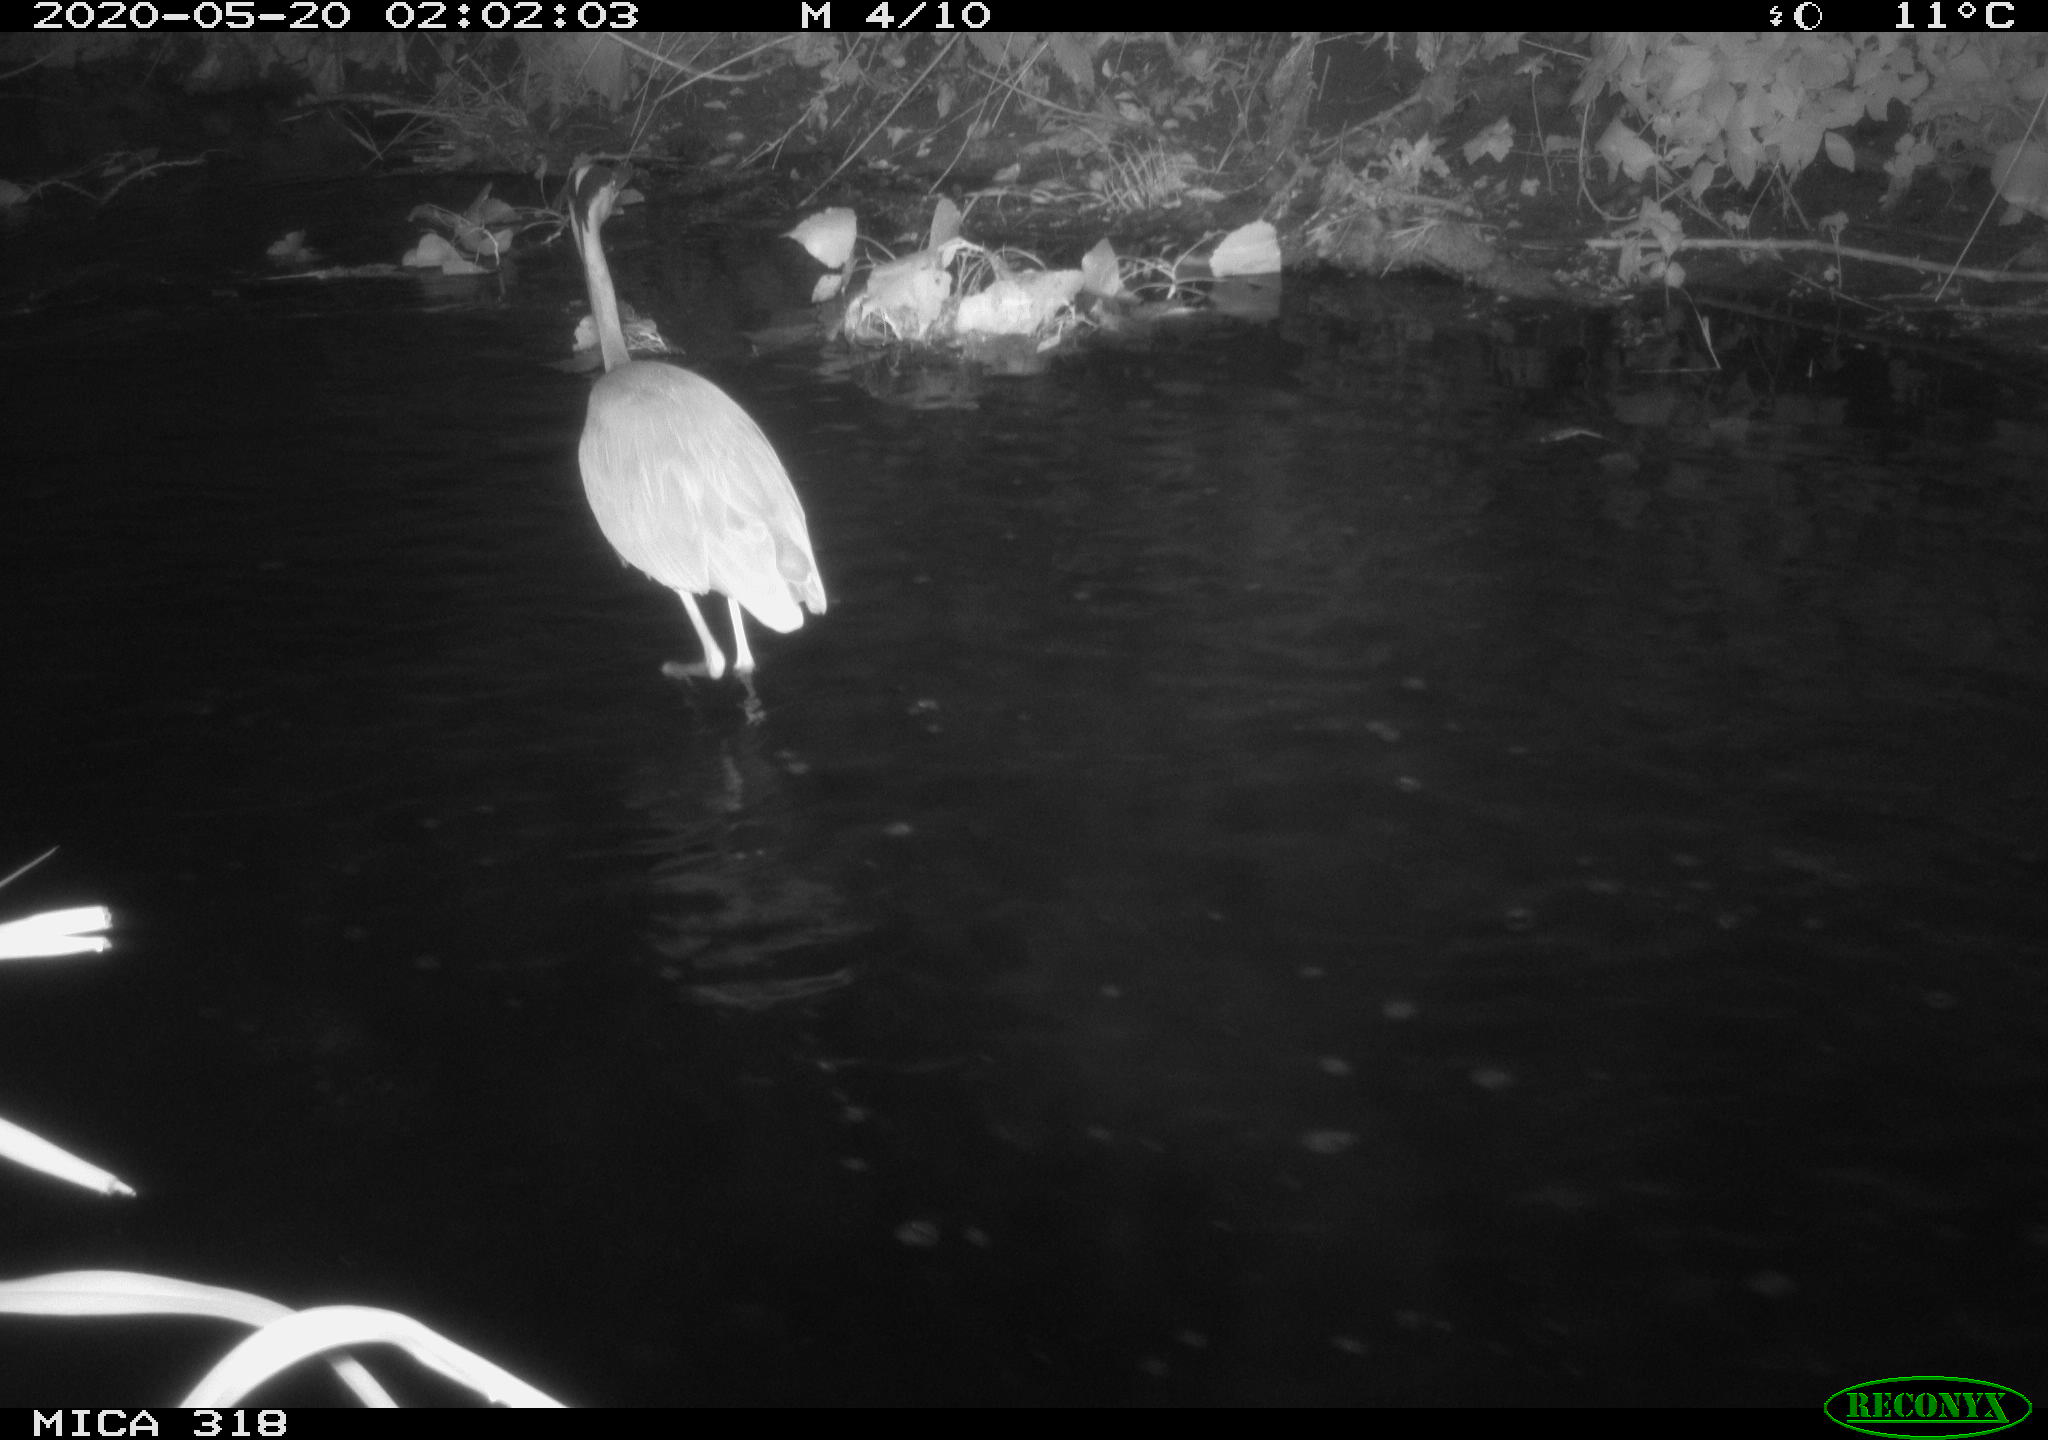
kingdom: Animalia
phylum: Chordata
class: Aves
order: Pelecaniformes
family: Ardeidae
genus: Ardea
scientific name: Ardea cinerea
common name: Grey heron
